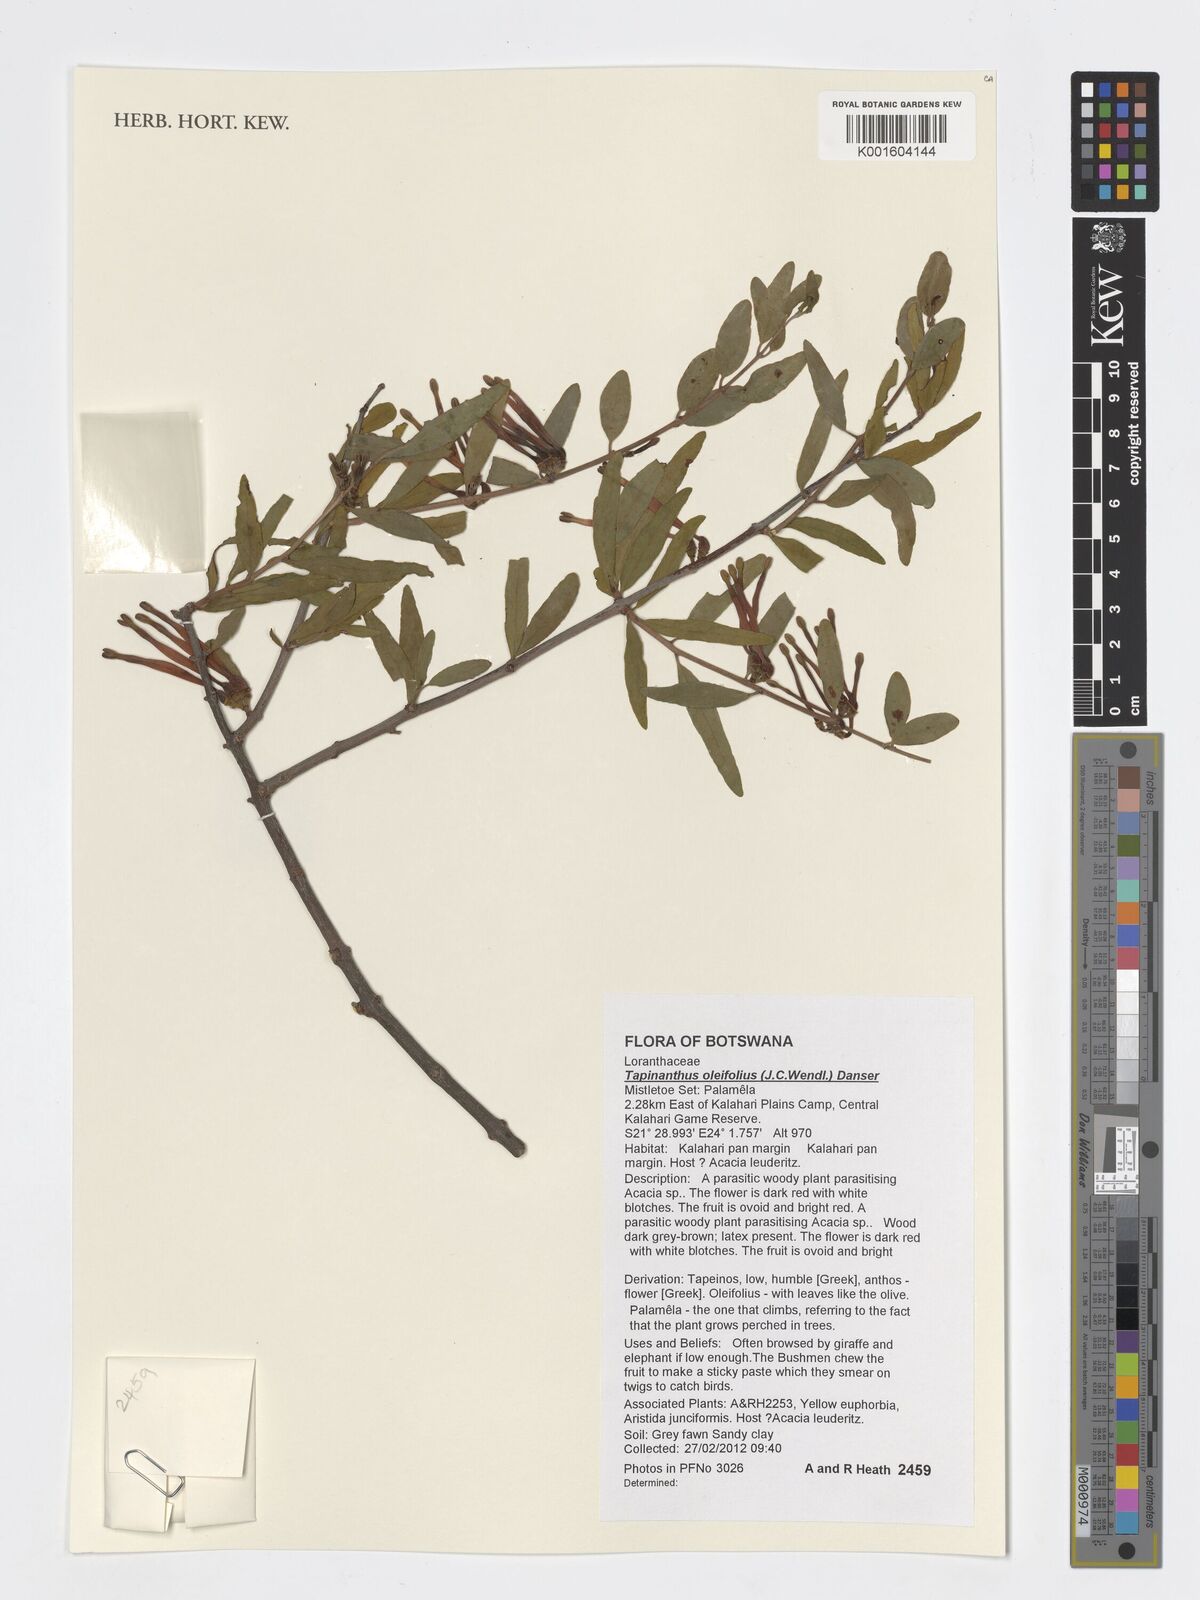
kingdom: Plantae
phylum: Tracheophyta
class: Magnoliopsida
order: Santalales
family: Loranthaceae
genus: Tapinanthus
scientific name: Tapinanthus oleifolius
